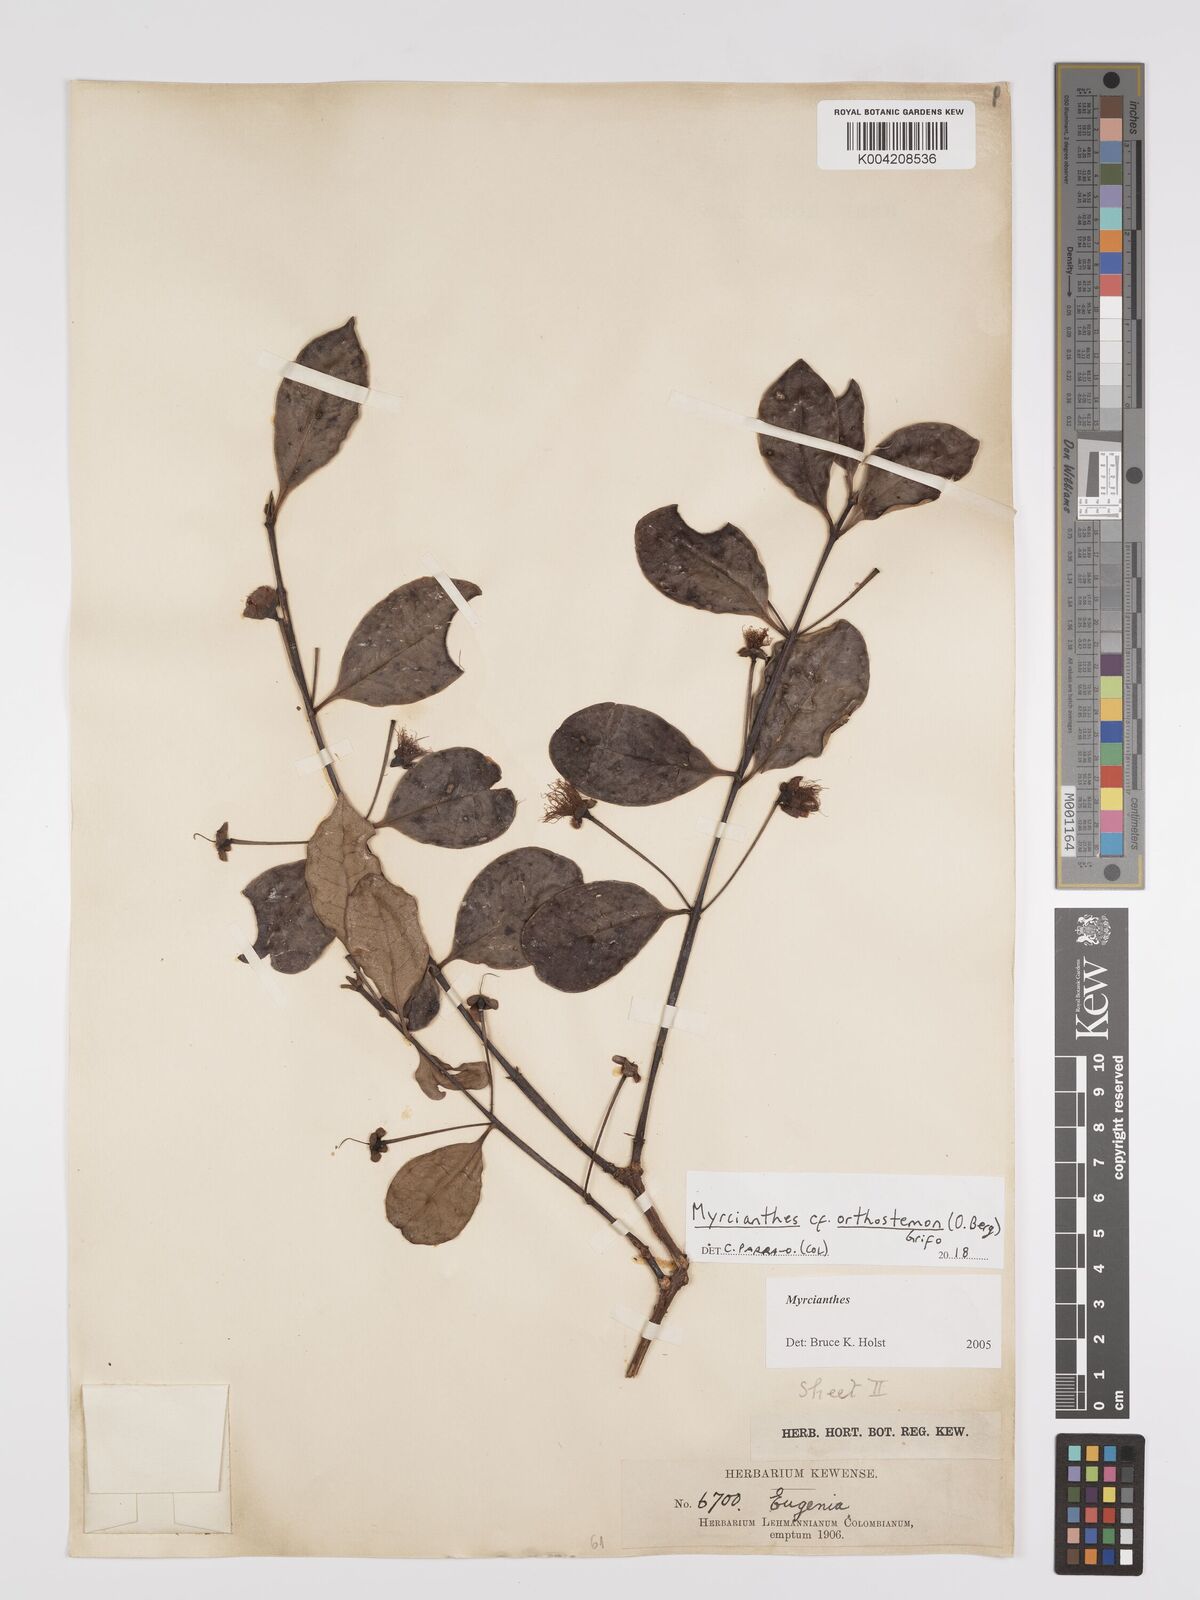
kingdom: Plantae
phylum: Tracheophyta
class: Magnoliopsida
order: Myrtales
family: Myrtaceae
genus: Myrcianthes
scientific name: Myrcianthes orthostemon
